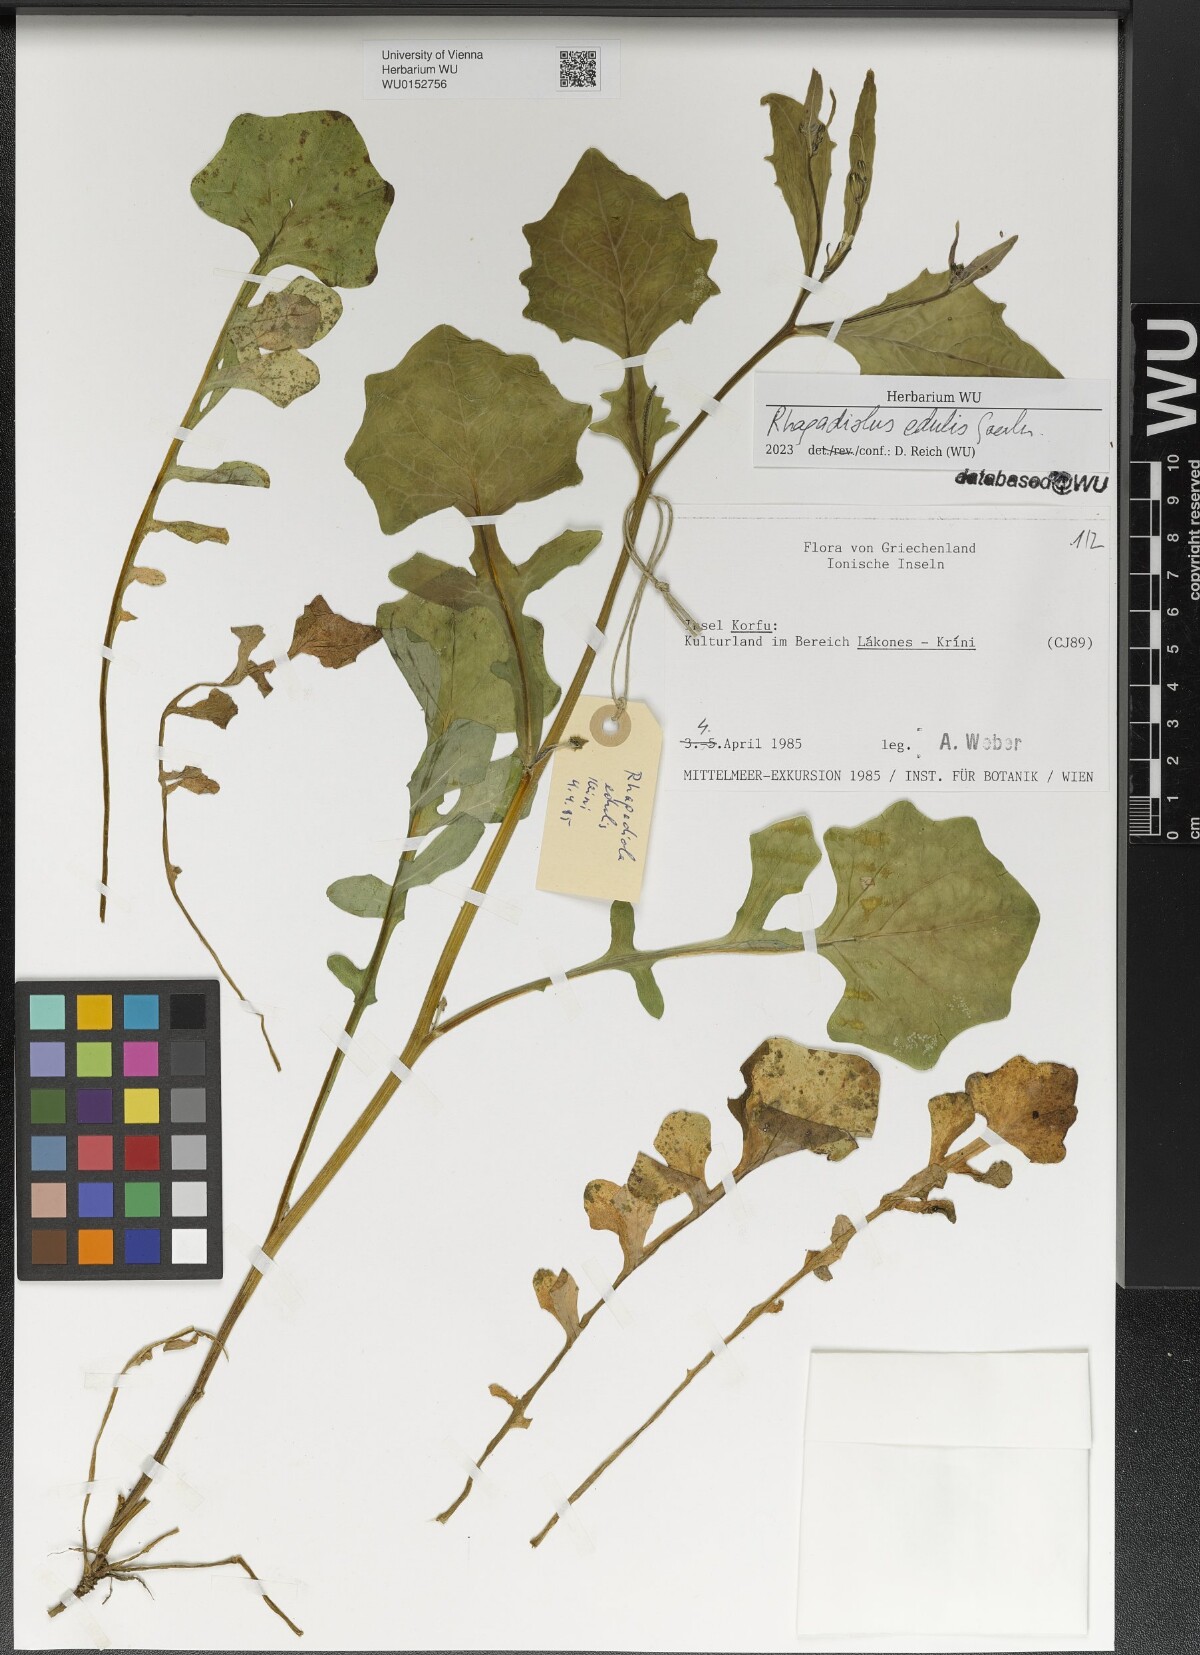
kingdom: Plantae
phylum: Tracheophyta
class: Magnoliopsida
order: Asterales
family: Asteraceae
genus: Rhagadiolus
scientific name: Rhagadiolus edulis
